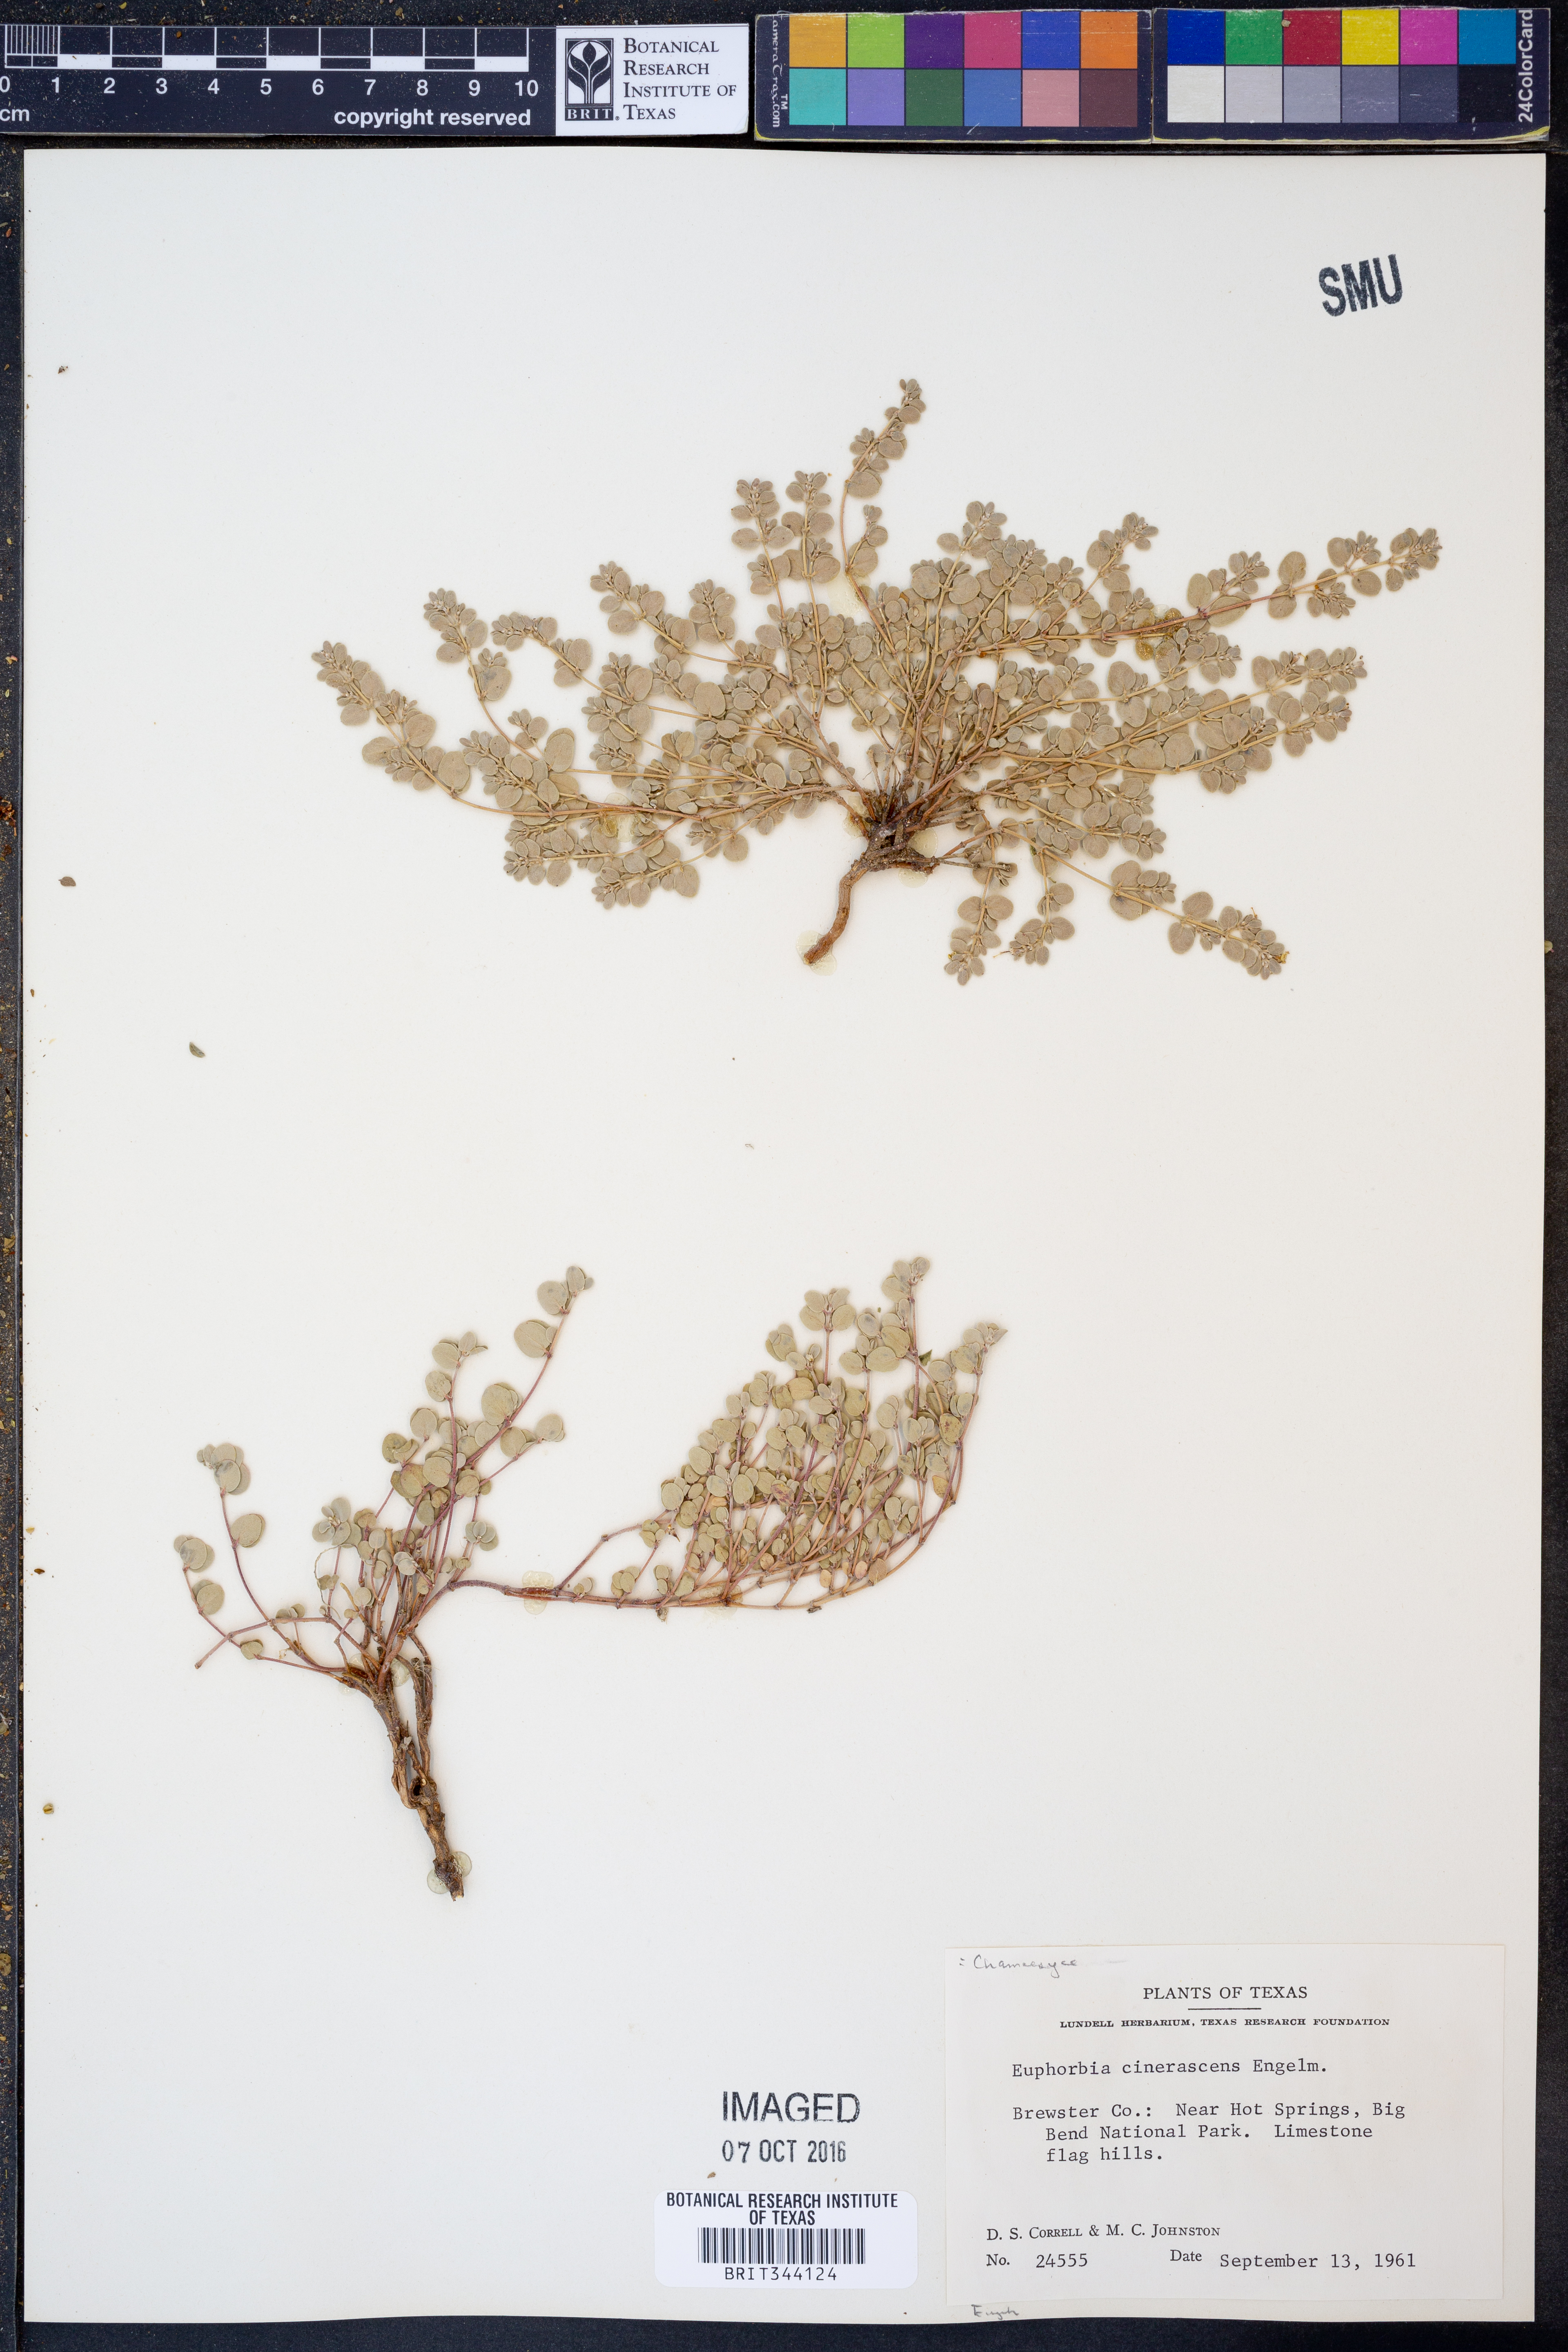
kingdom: Plantae
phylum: Tracheophyta
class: Magnoliopsida
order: Malpighiales
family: Euphorbiaceae
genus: Euphorbia
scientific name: Euphorbia cinerascens
